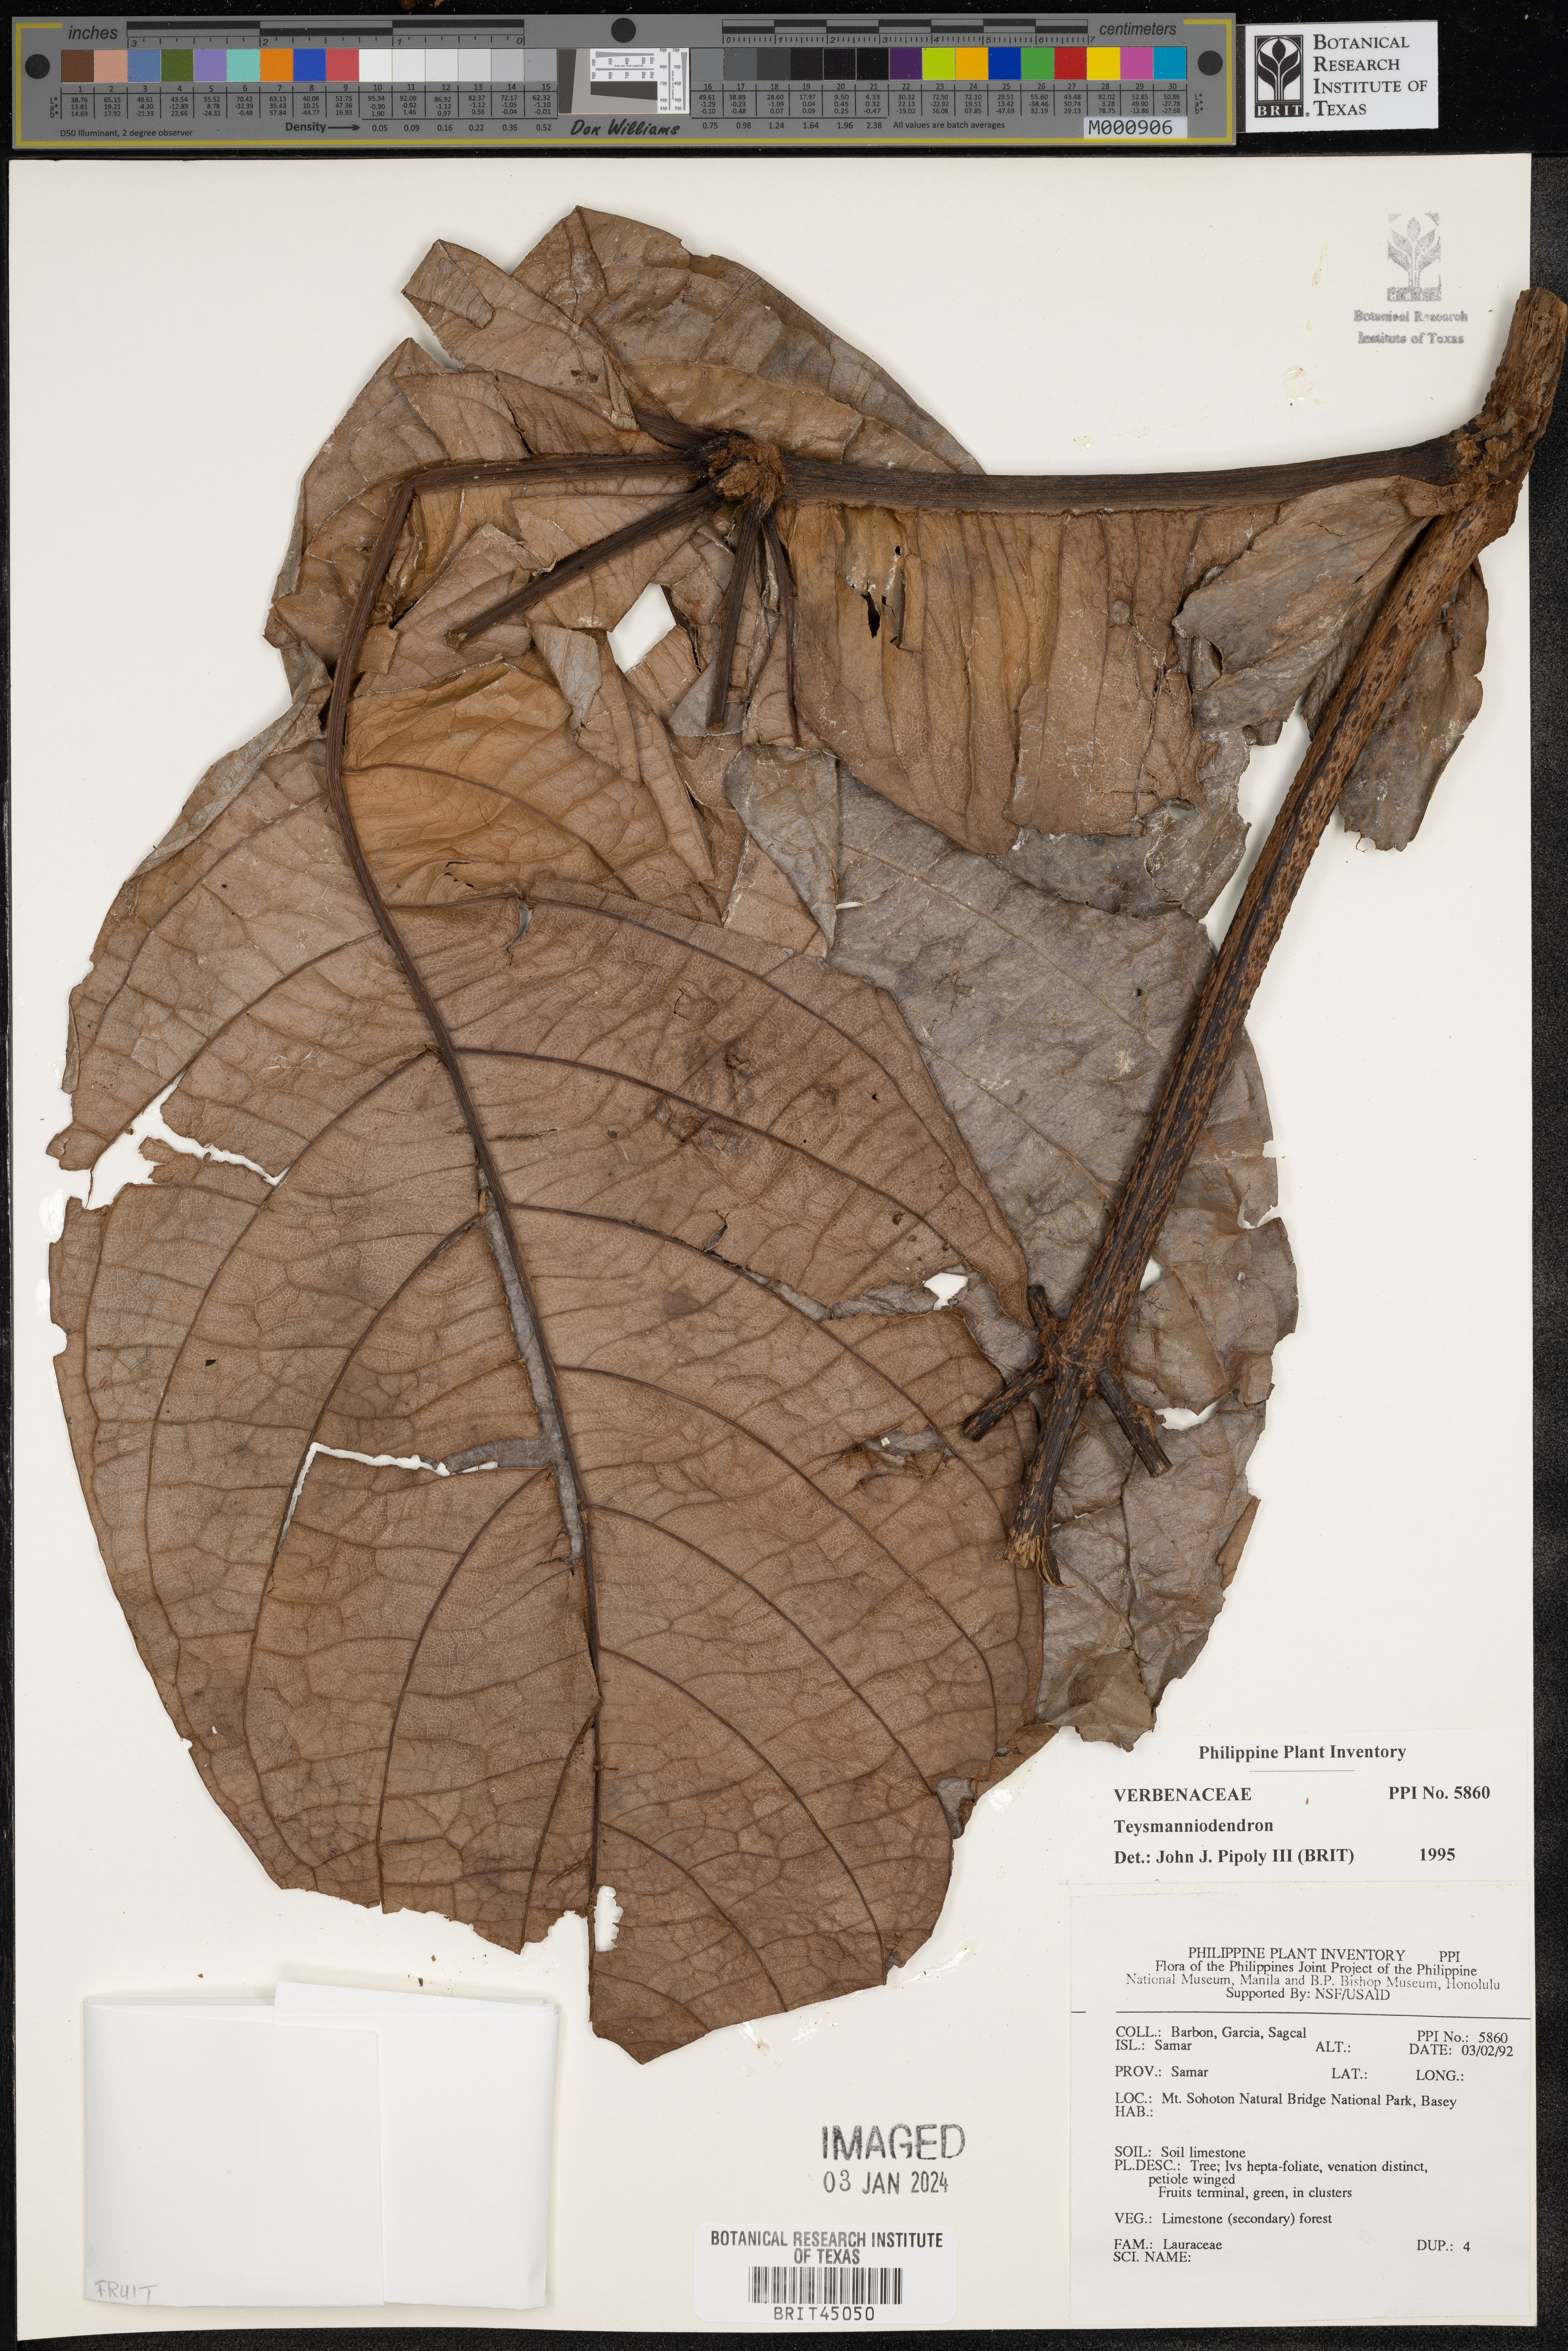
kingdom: Plantae
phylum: Tracheophyta
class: Magnoliopsida
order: Lamiales
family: Lamiaceae
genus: Teijsmanniodendron
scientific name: Teijsmanniodendron
